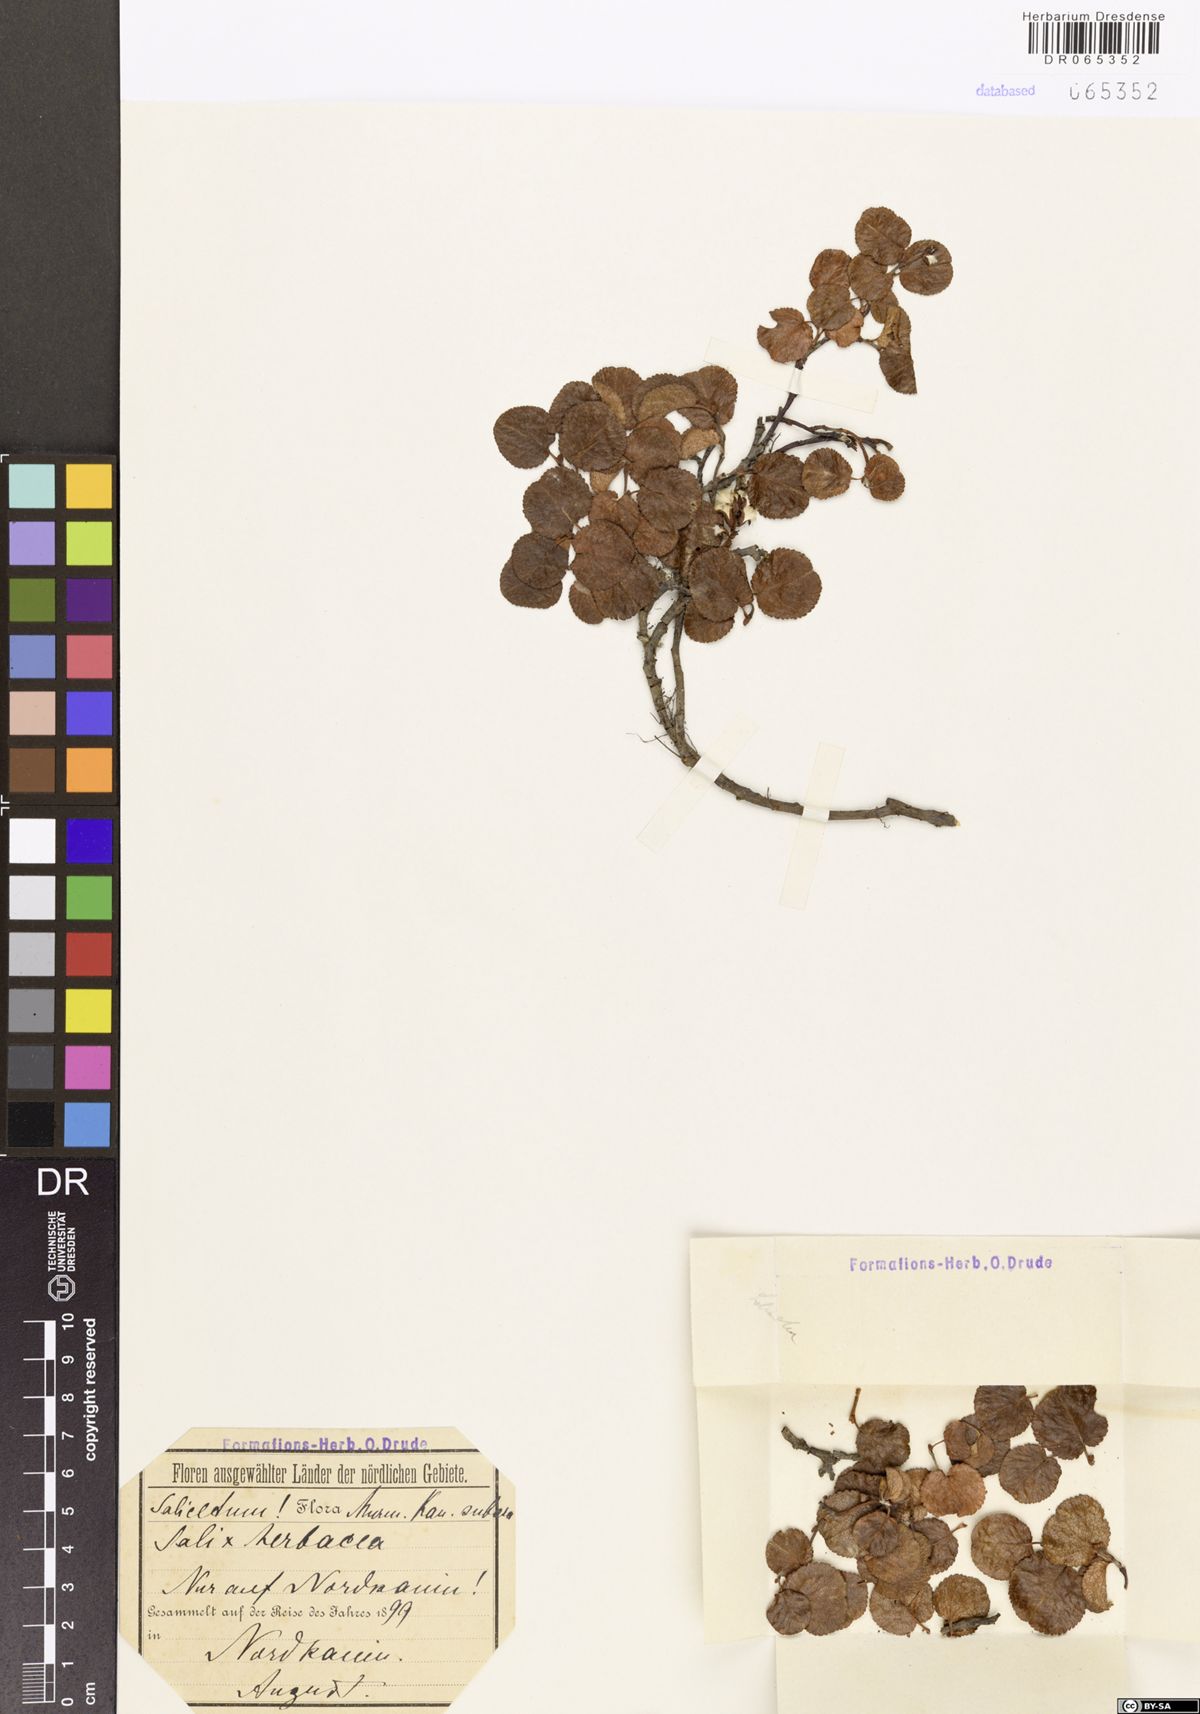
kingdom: Plantae
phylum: Tracheophyta
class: Magnoliopsida
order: Malpighiales
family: Salicaceae
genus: Salix
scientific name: Salix herbacea
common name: Dwarf willow
